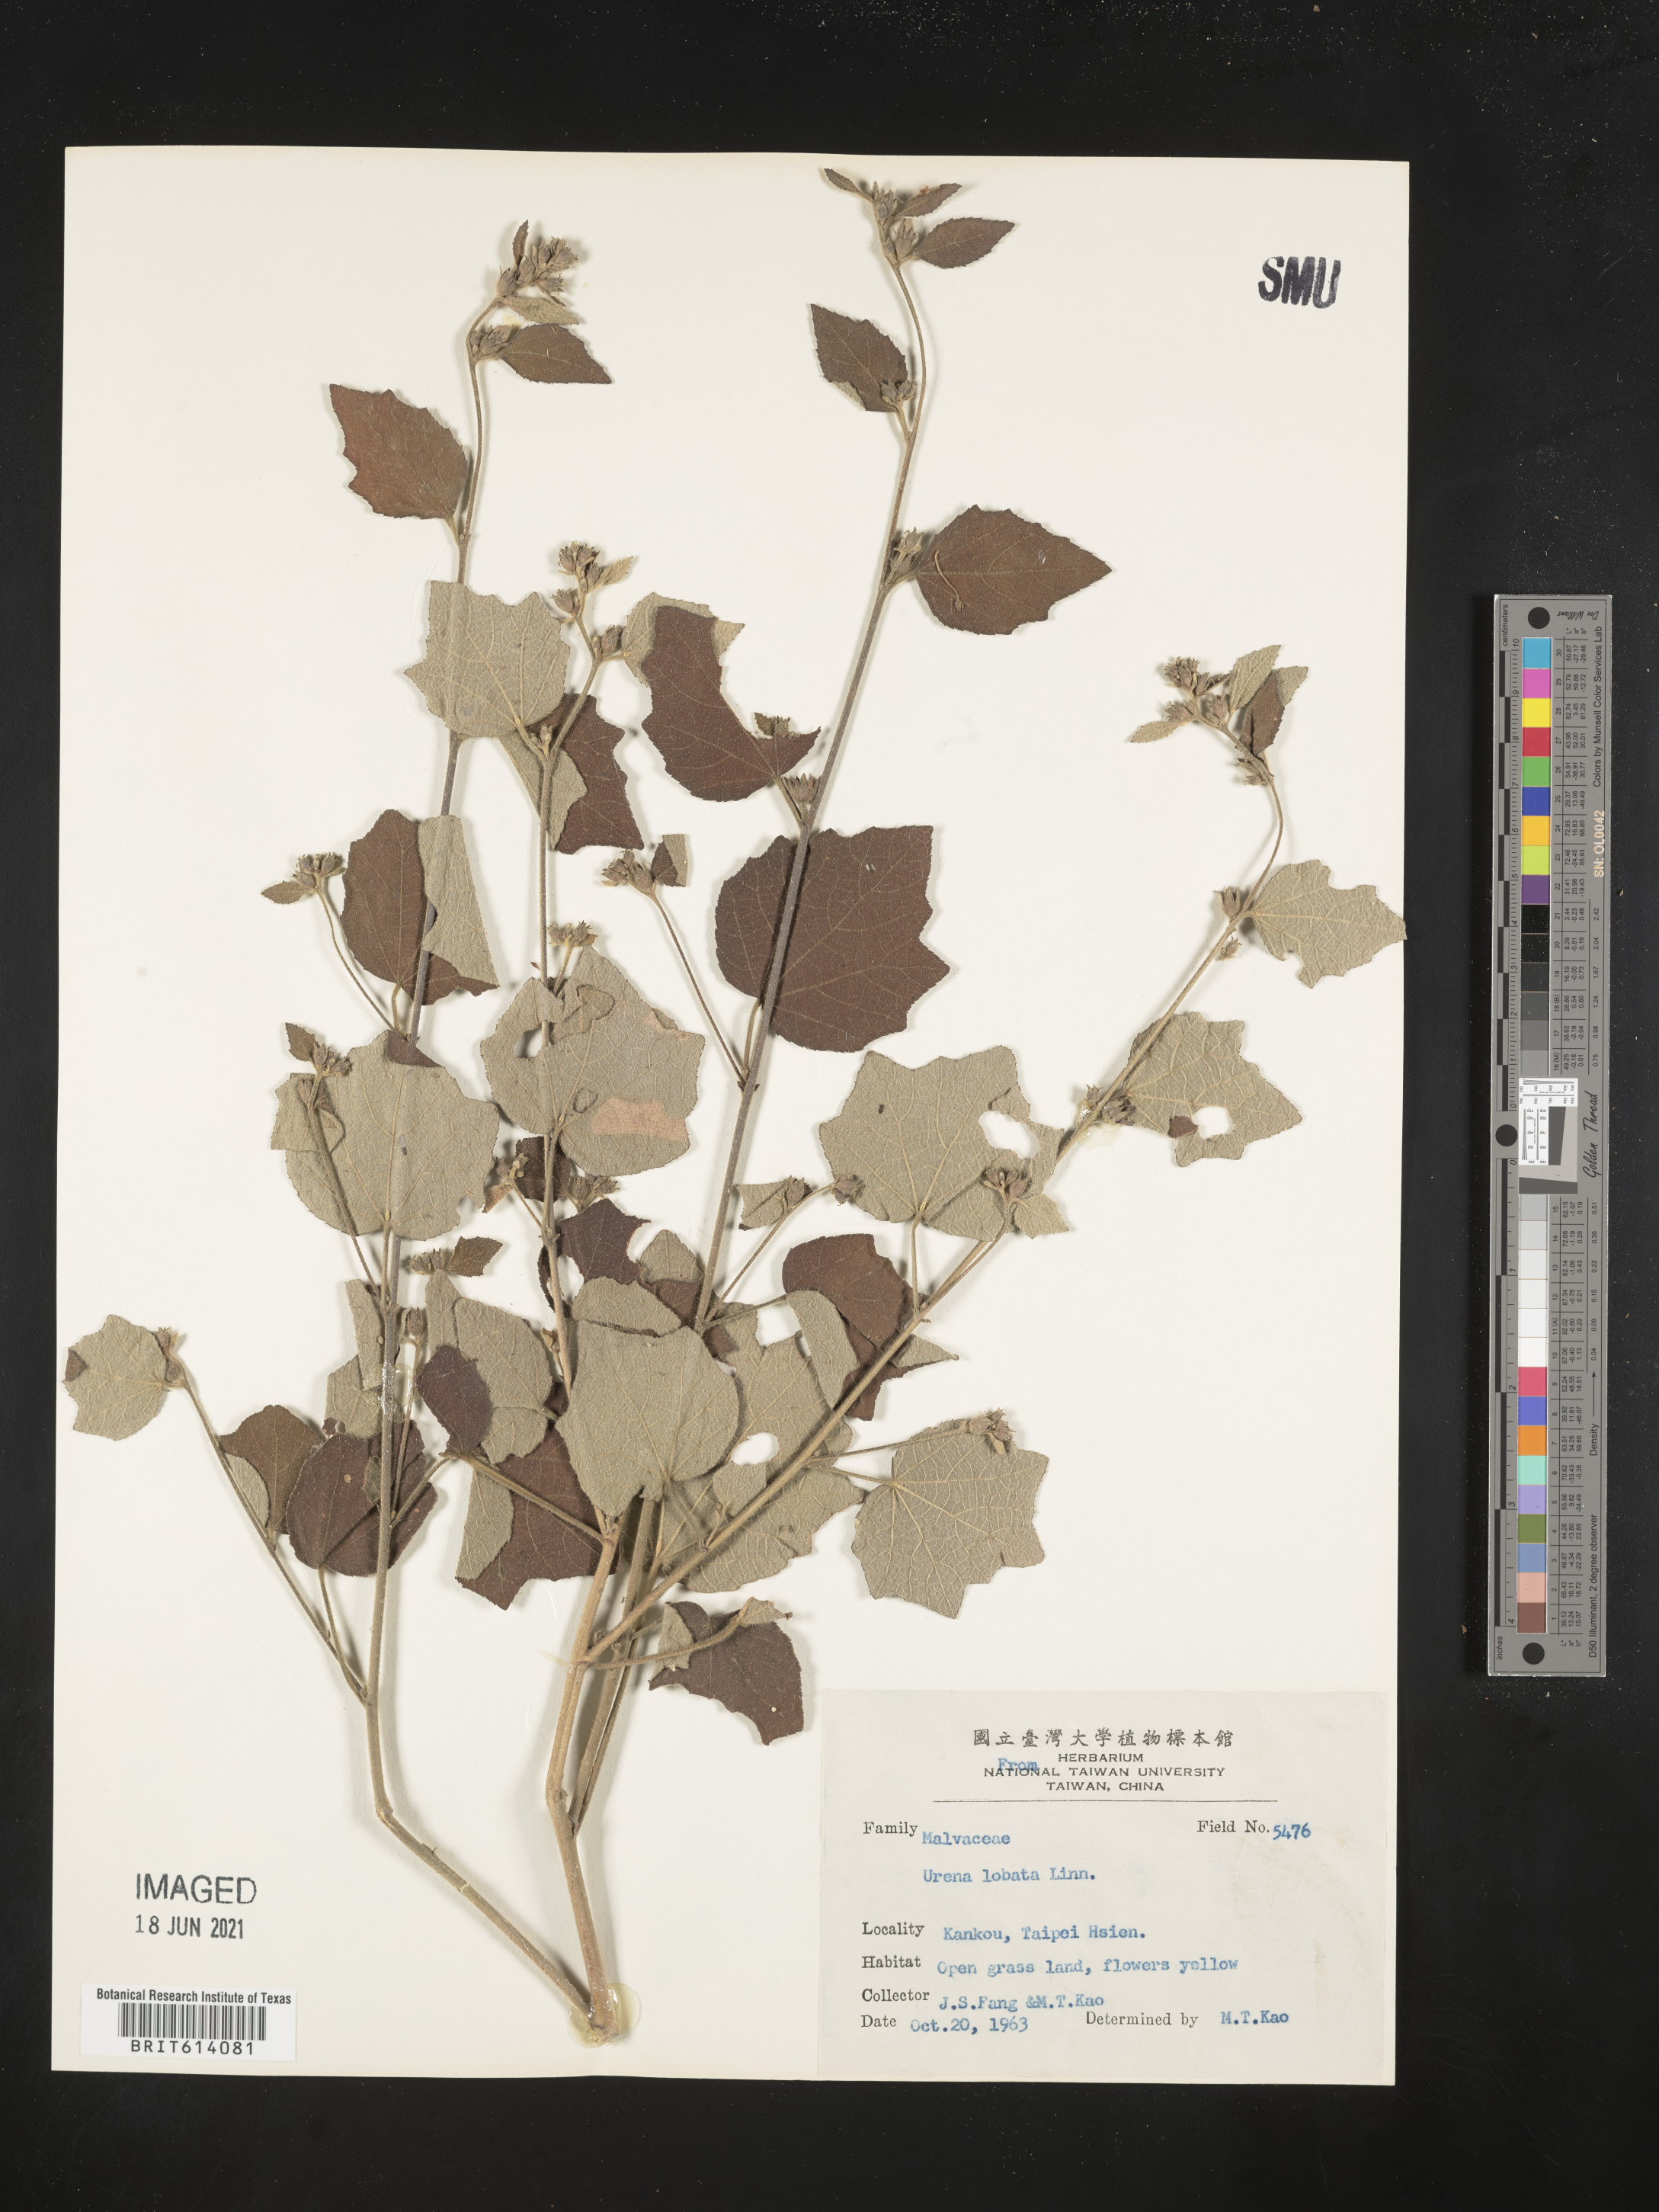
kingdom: Plantae
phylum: Tracheophyta
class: Magnoliopsida
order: Malvales
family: Malvaceae
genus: Urena
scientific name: Urena lobata
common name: Caesarweed
